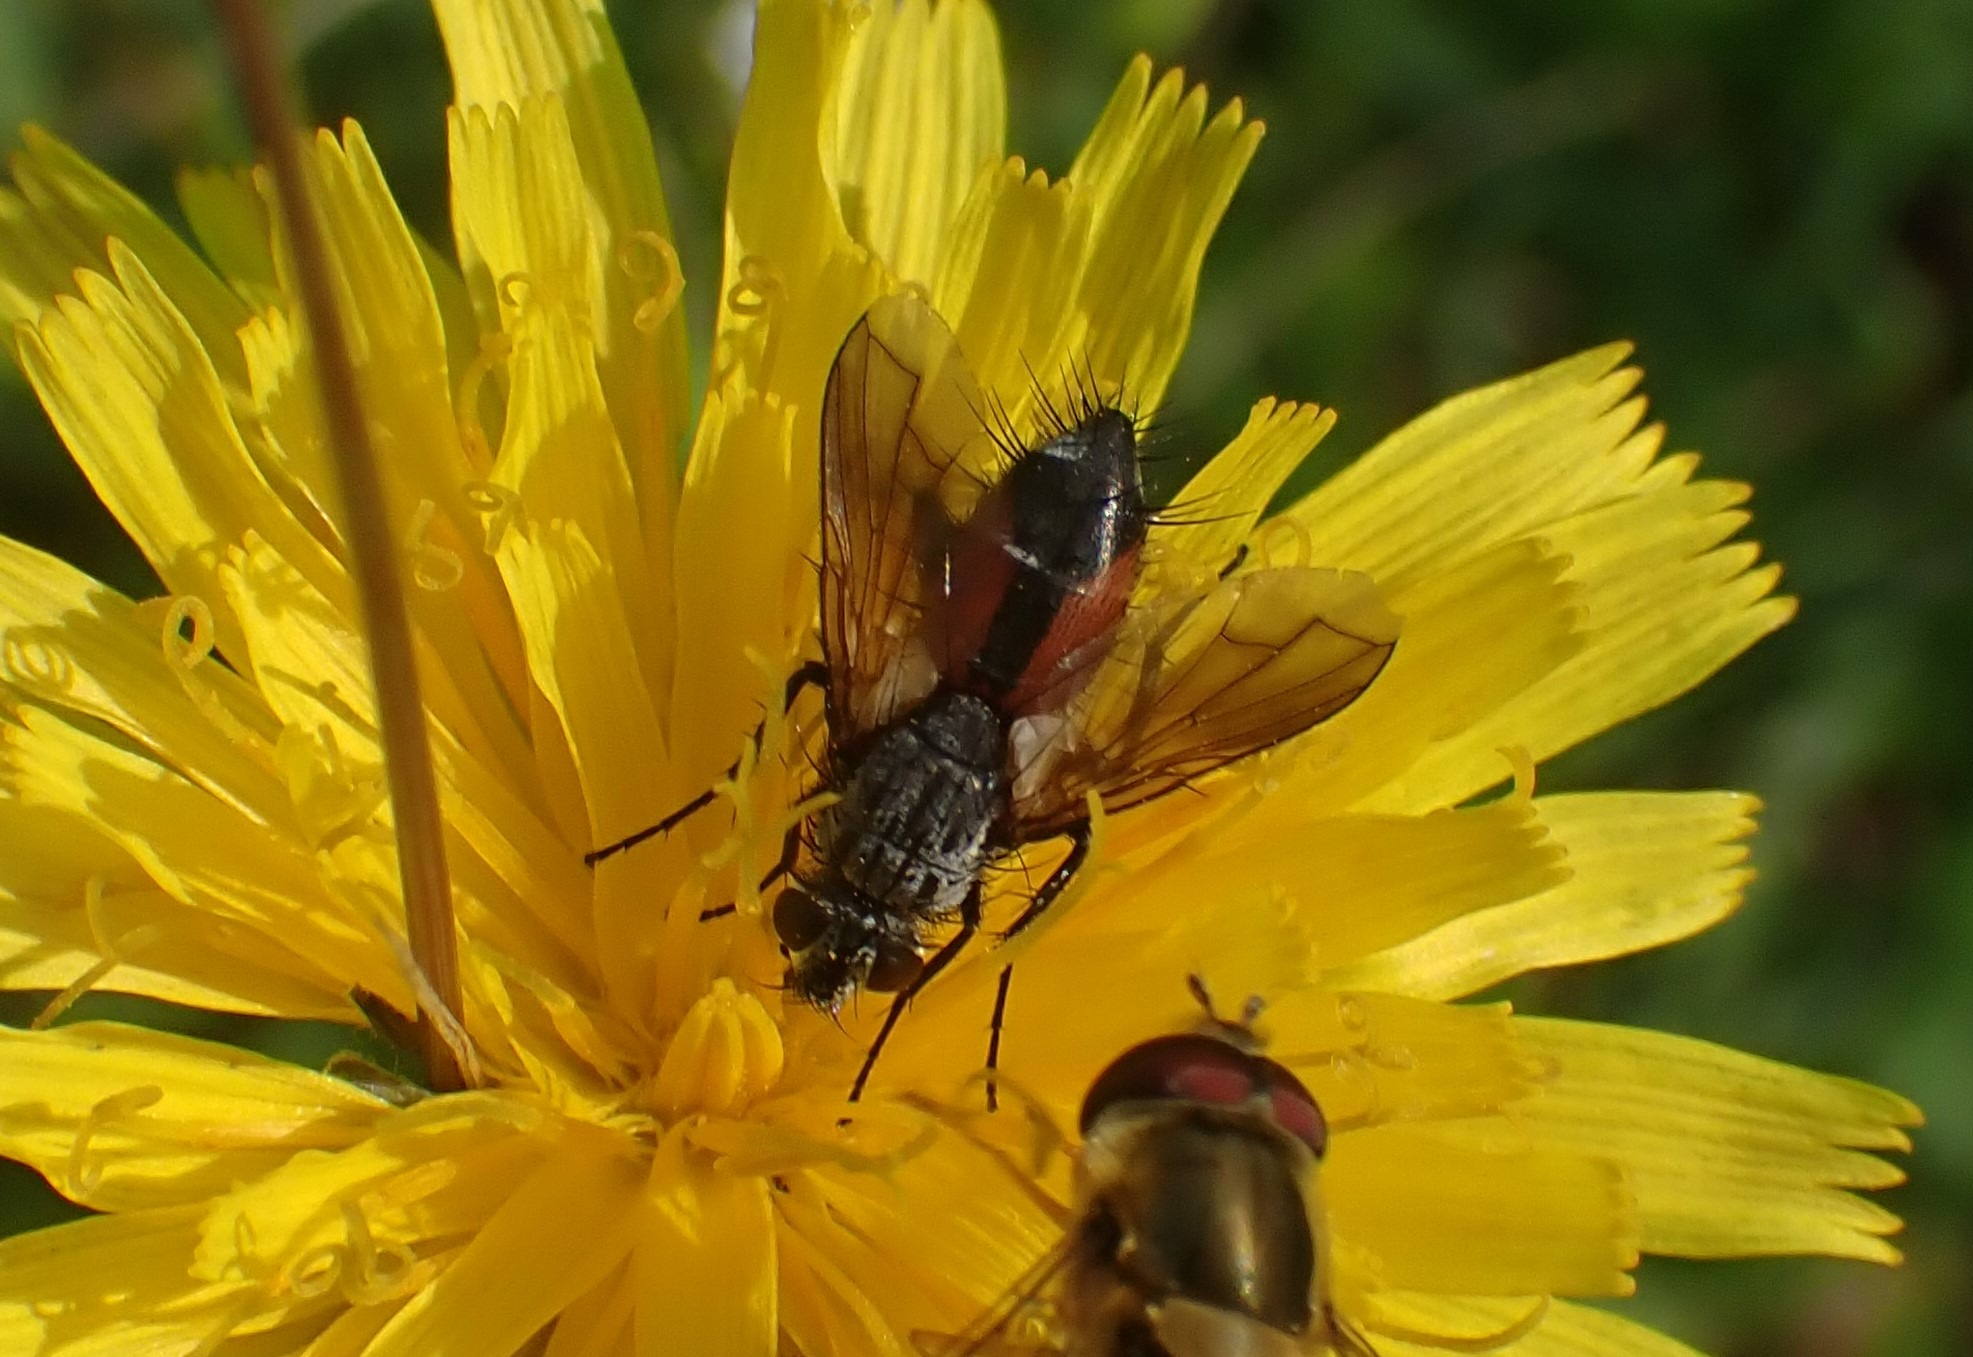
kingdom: Animalia
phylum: Arthropoda
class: Insecta
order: Diptera
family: Tachinidae
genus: Eriothrix
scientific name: Eriothrix rufomaculatus
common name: Rød snylteflue
